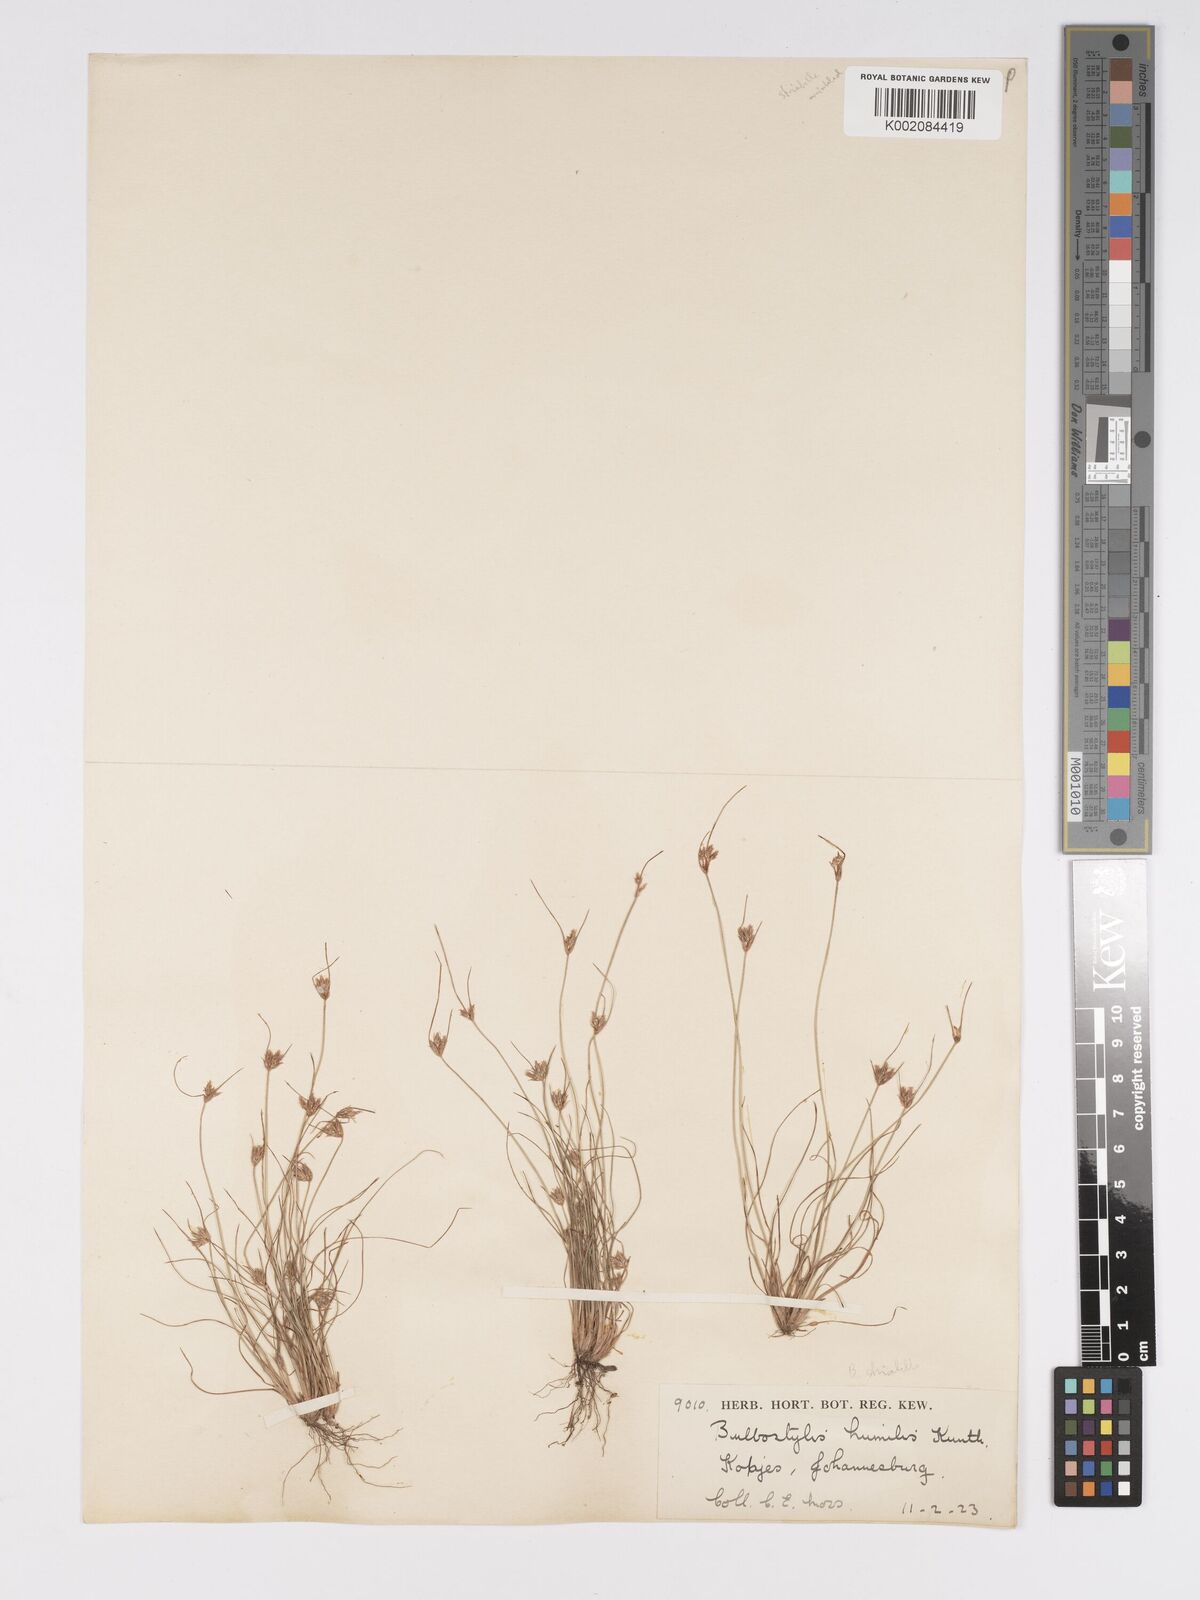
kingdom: Plantae
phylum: Tracheophyta
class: Liliopsida
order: Poales
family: Cyperaceae
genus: Bulbostylis
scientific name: Bulbostylis humilis
